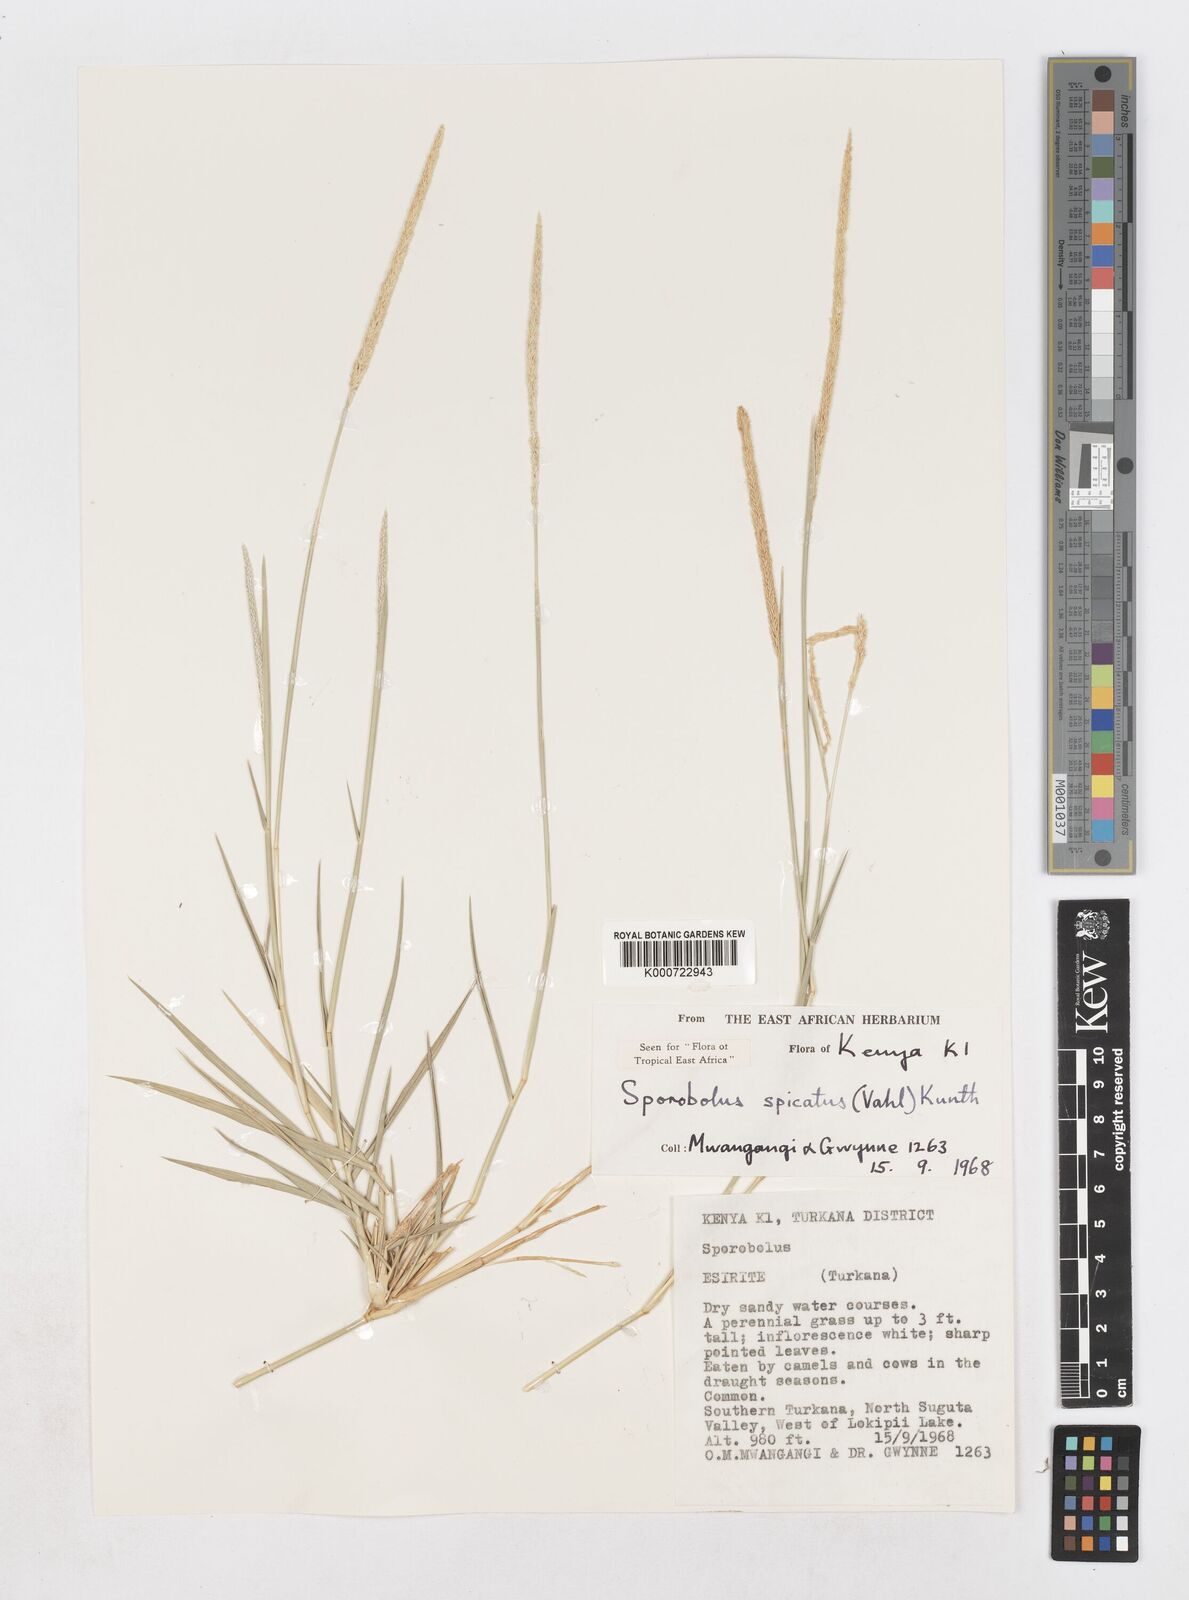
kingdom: Plantae
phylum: Tracheophyta
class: Liliopsida
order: Poales
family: Poaceae
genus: Sporobolus
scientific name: Sporobolus spicatus
